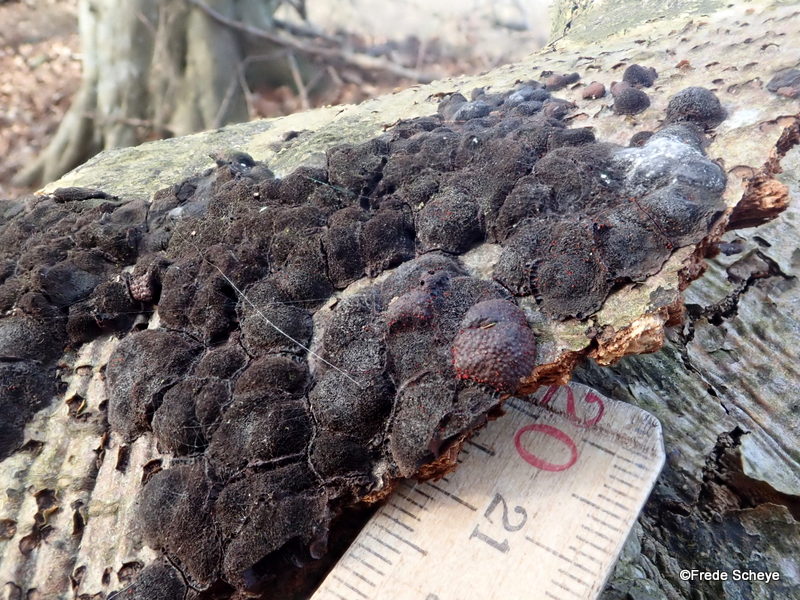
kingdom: Fungi
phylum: Ascomycota
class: Sordariomycetes
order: Xylariales
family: Hypoxylaceae
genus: Hypoxylon
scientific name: Hypoxylon fragiforme
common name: kuljordbær
